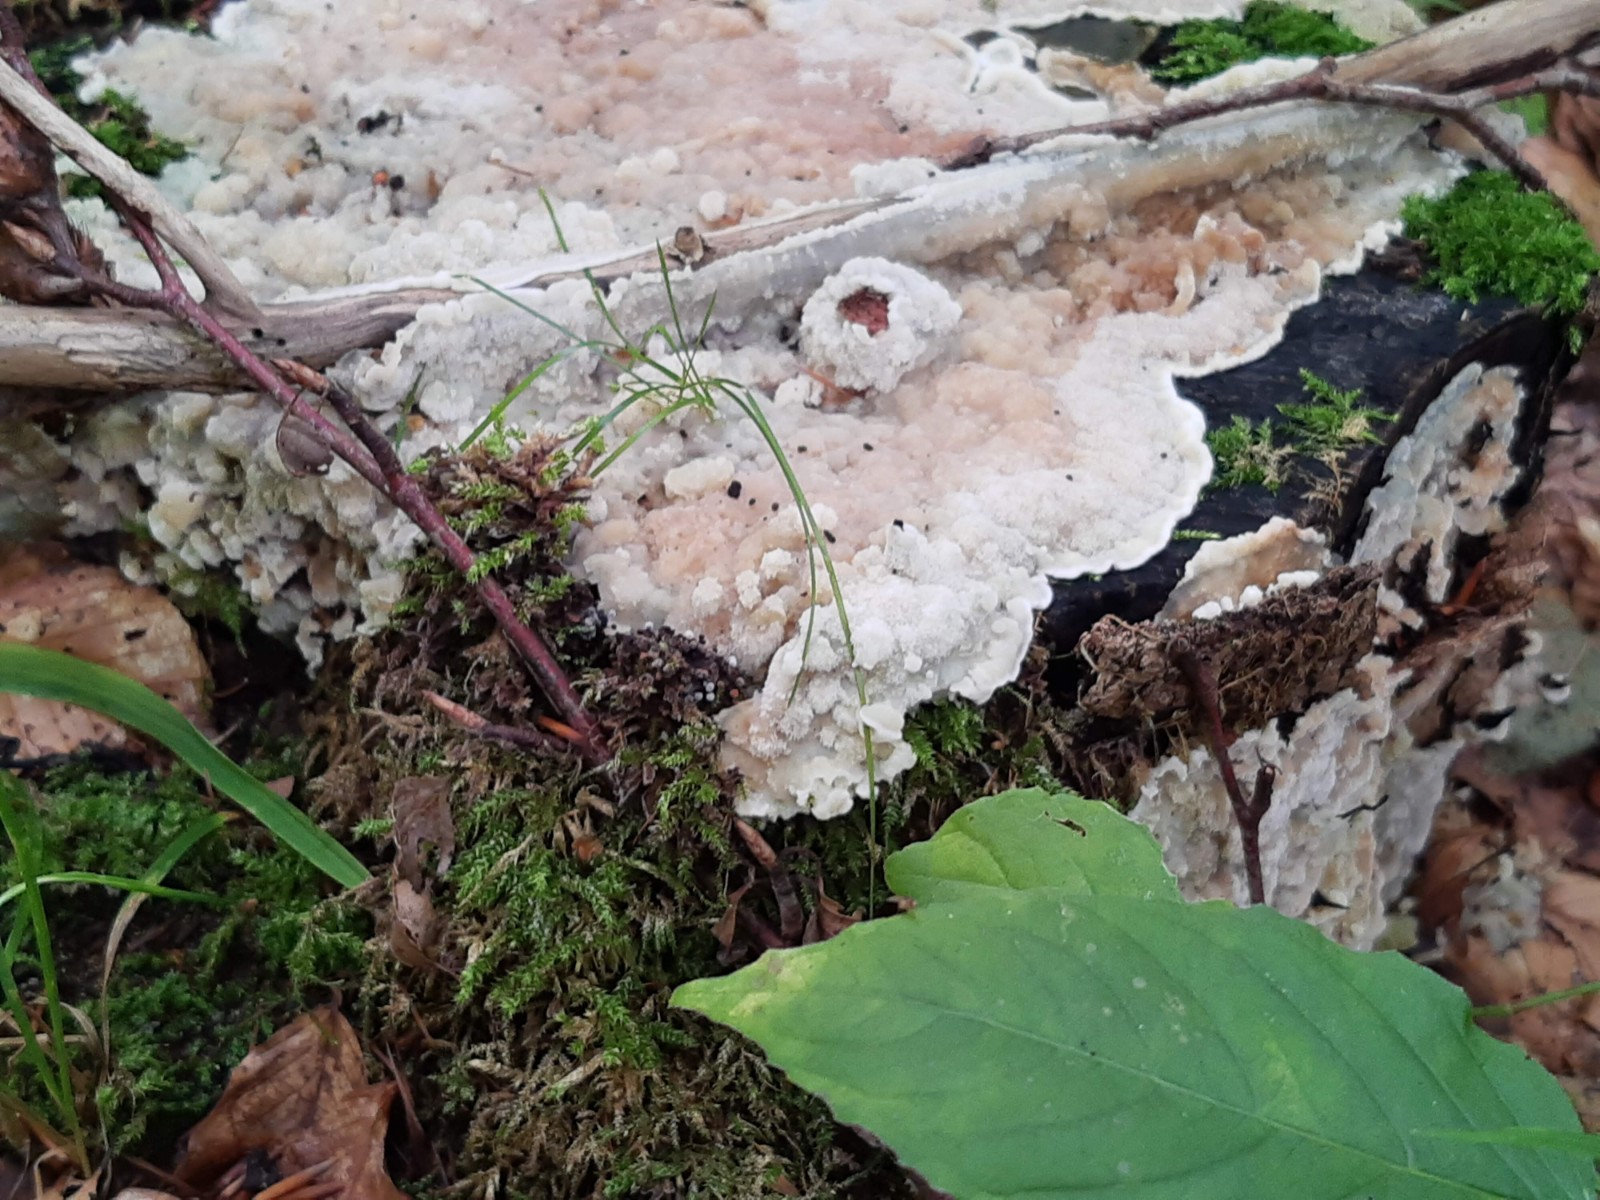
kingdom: Fungi
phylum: Basidiomycota
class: Agaricomycetes
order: Polyporales
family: Meruliaceae
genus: Physisporinus
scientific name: Physisporinus vitreus
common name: mastesvamp
